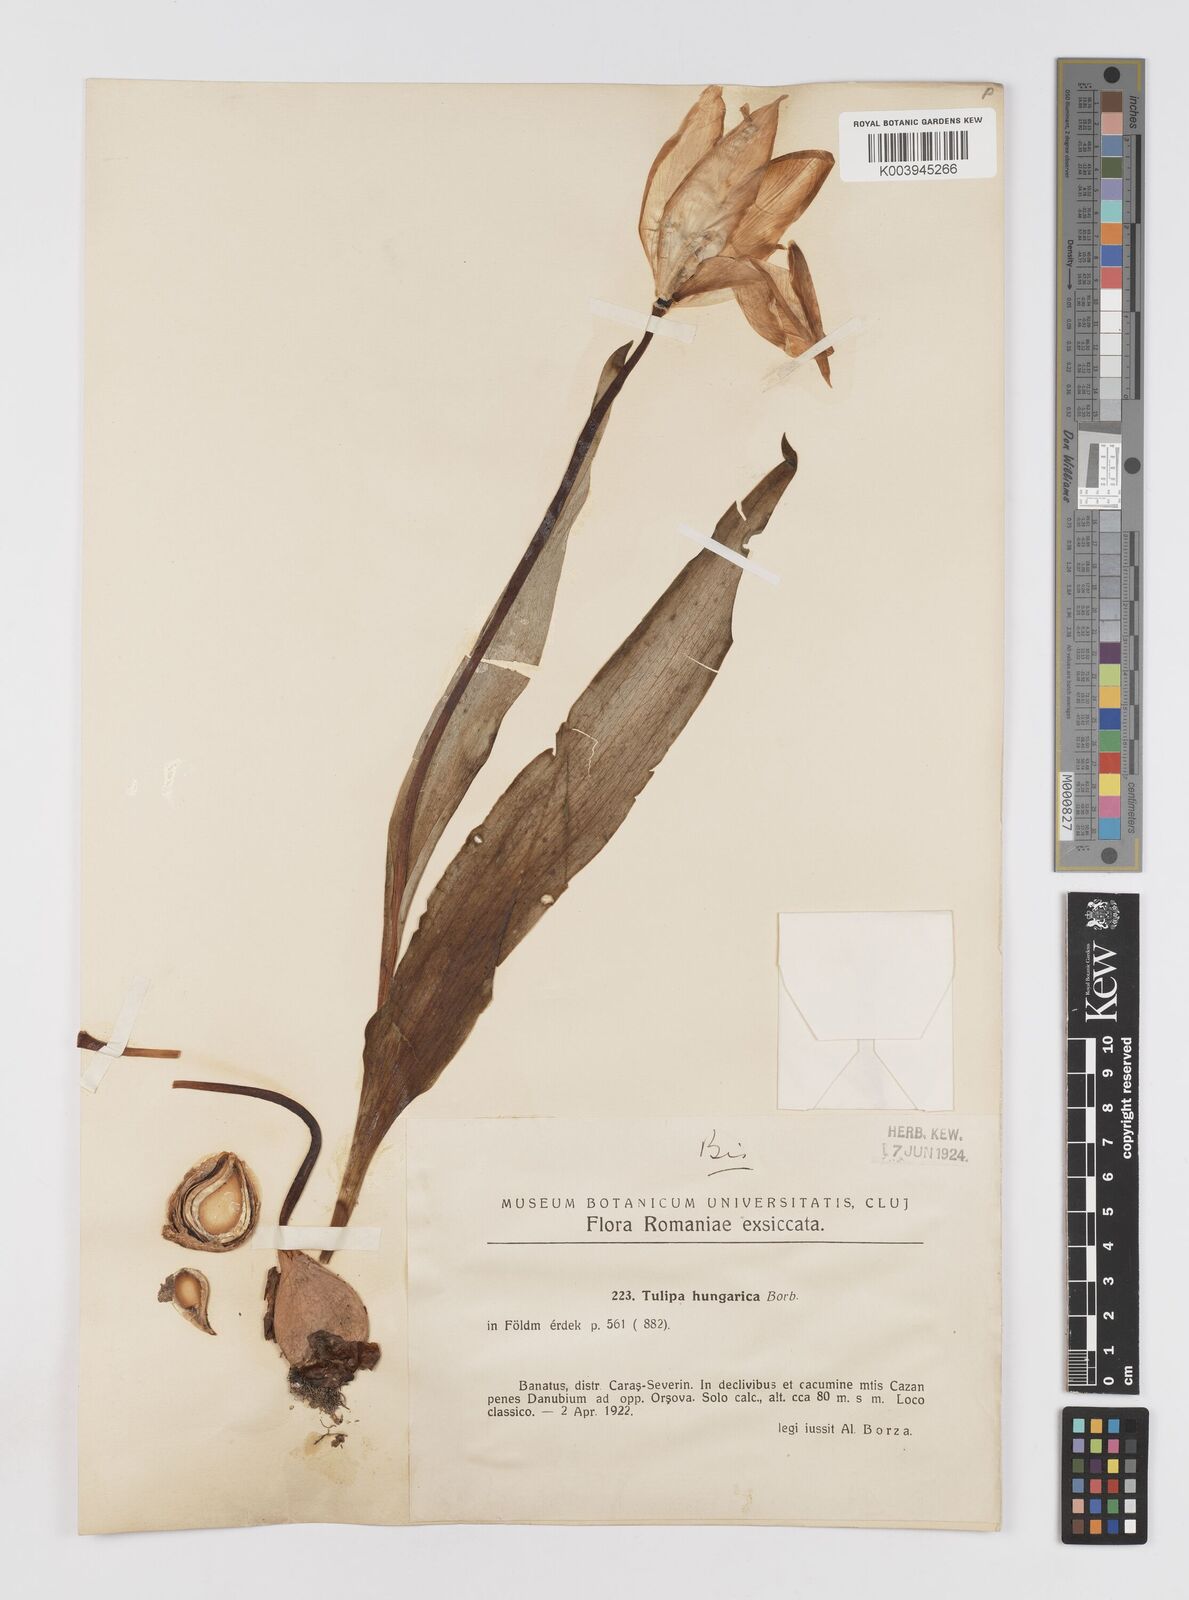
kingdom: Plantae
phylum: Tracheophyta
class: Liliopsida
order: Liliales
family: Liliaceae
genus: Tulipa
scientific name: Tulipa hungarica
